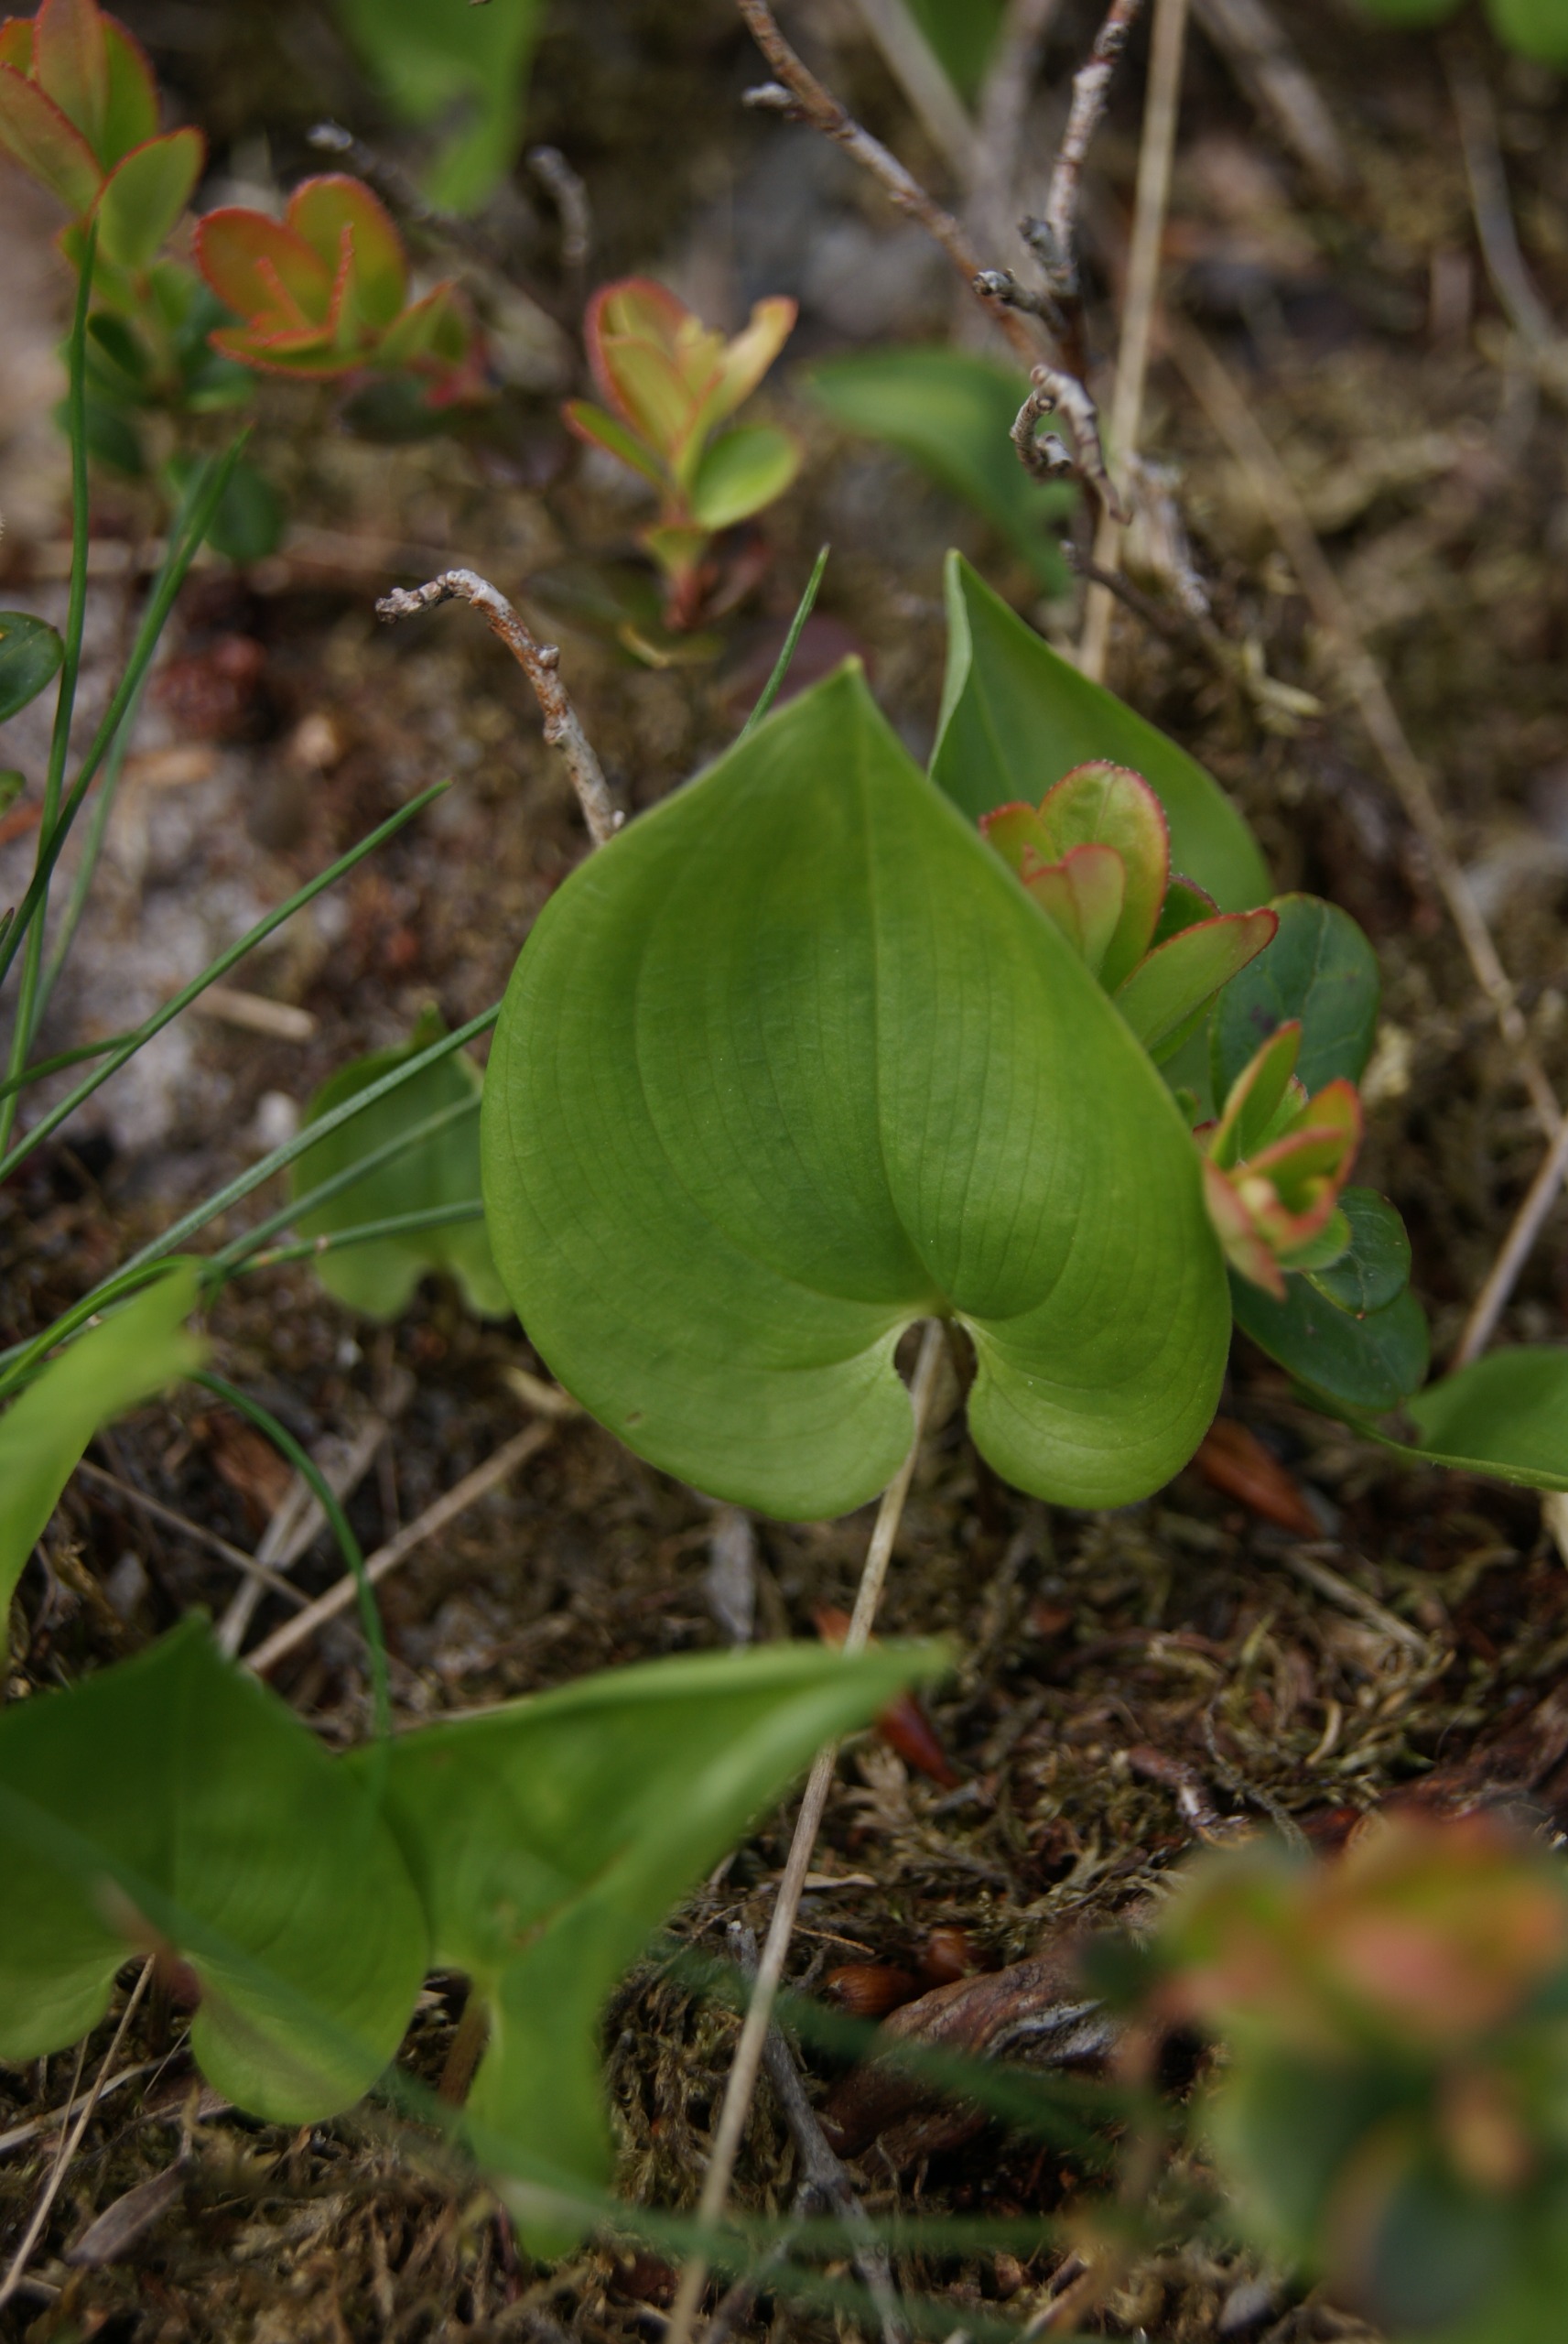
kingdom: Plantae
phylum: Tracheophyta
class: Liliopsida
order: Asparagales
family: Asparagaceae
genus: Maianthemum
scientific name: Maianthemum bifolium
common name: Majblomst
